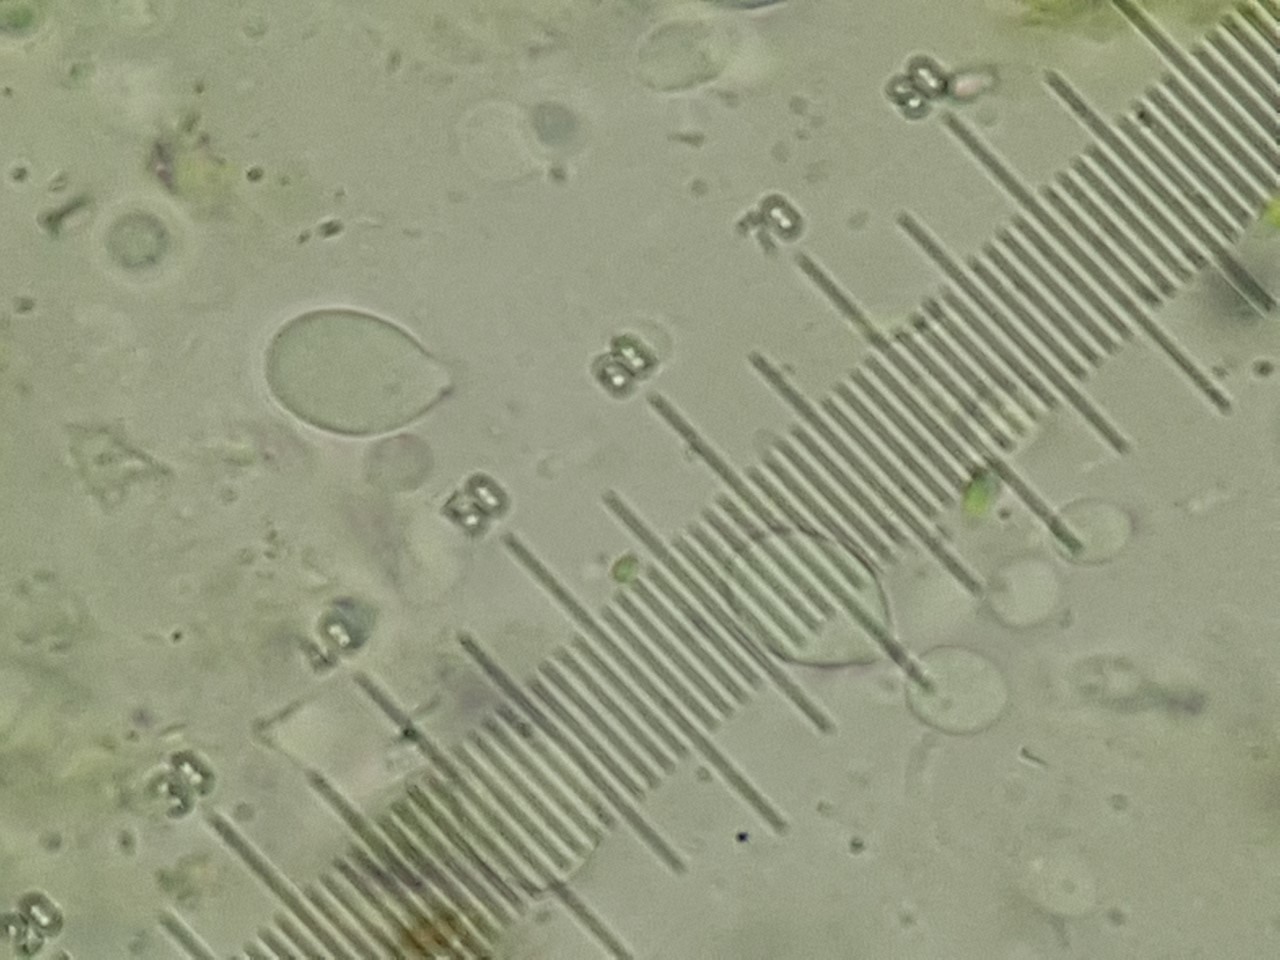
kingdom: Fungi
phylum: Ascomycota
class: Dothideomycetes
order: Botryosphaeriales
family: Phyllostictaceae
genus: Phyllosticta
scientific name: Phyllosticta pachysandricola
